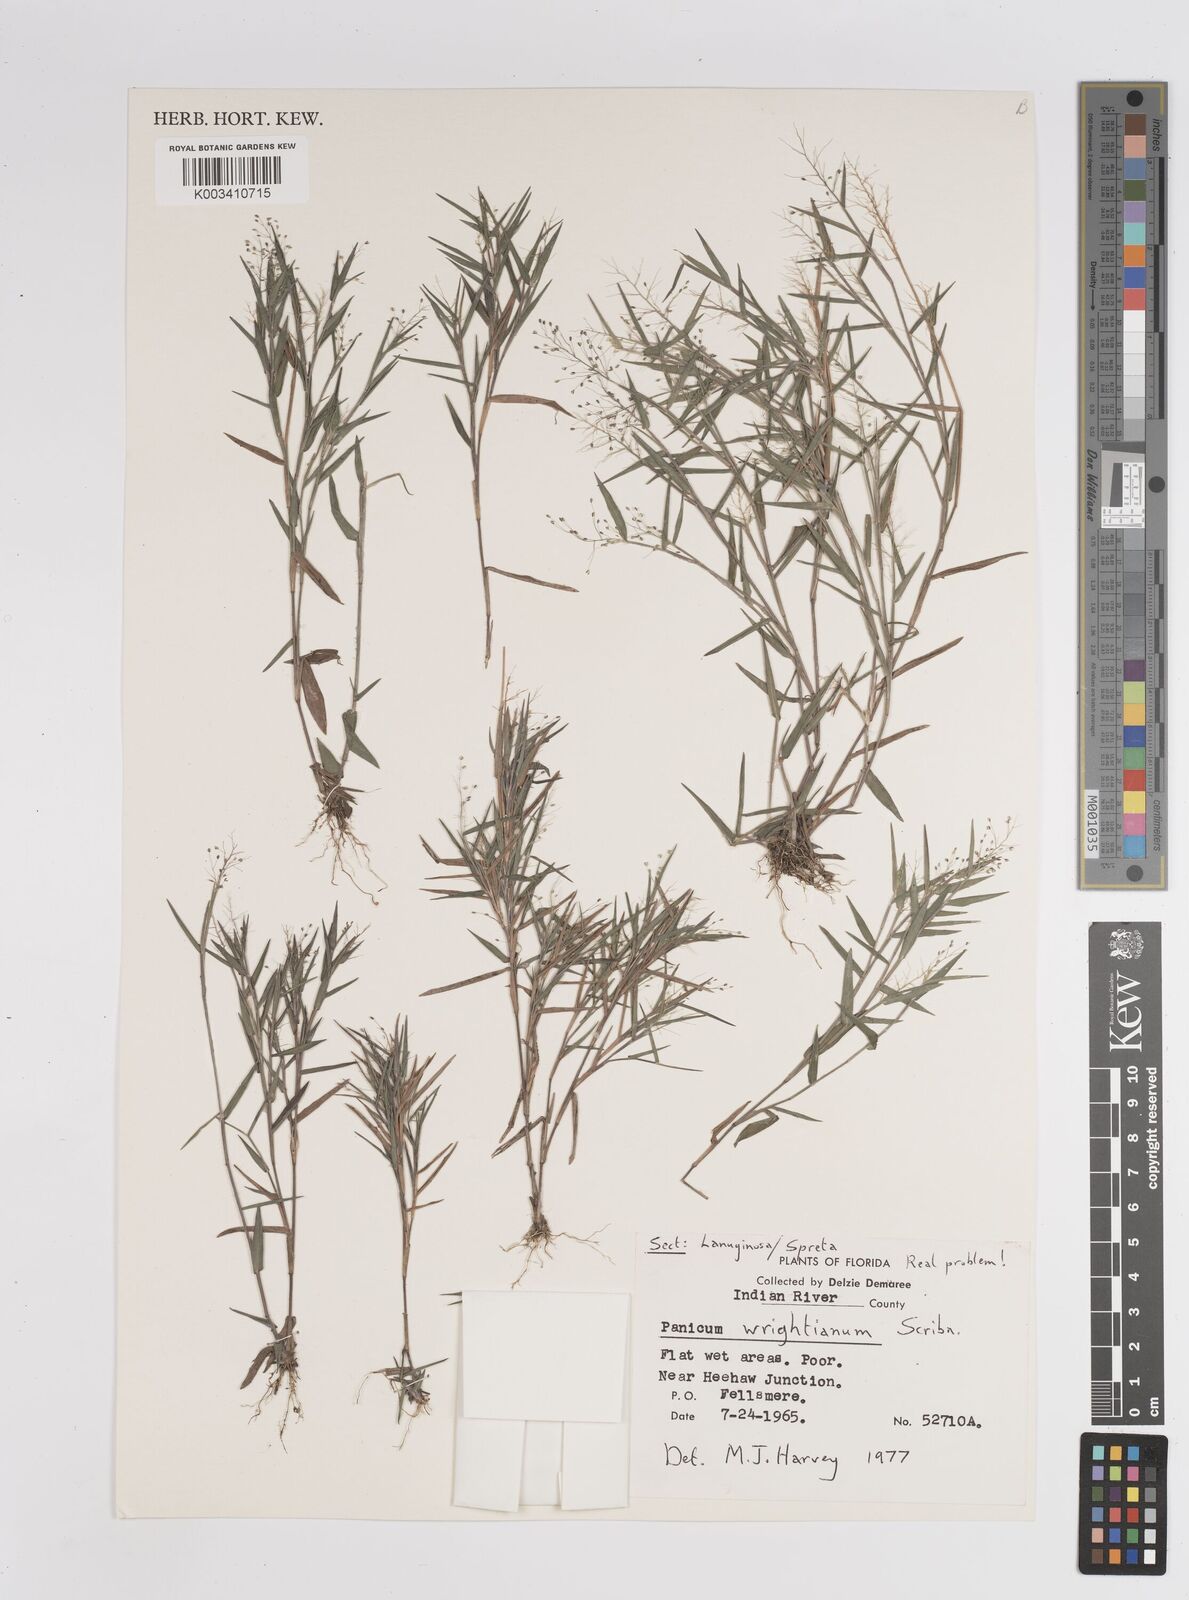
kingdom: Plantae
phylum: Tracheophyta
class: Liliopsida
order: Poales
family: Poaceae
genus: Dichanthelium
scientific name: Dichanthelium wrightianum
